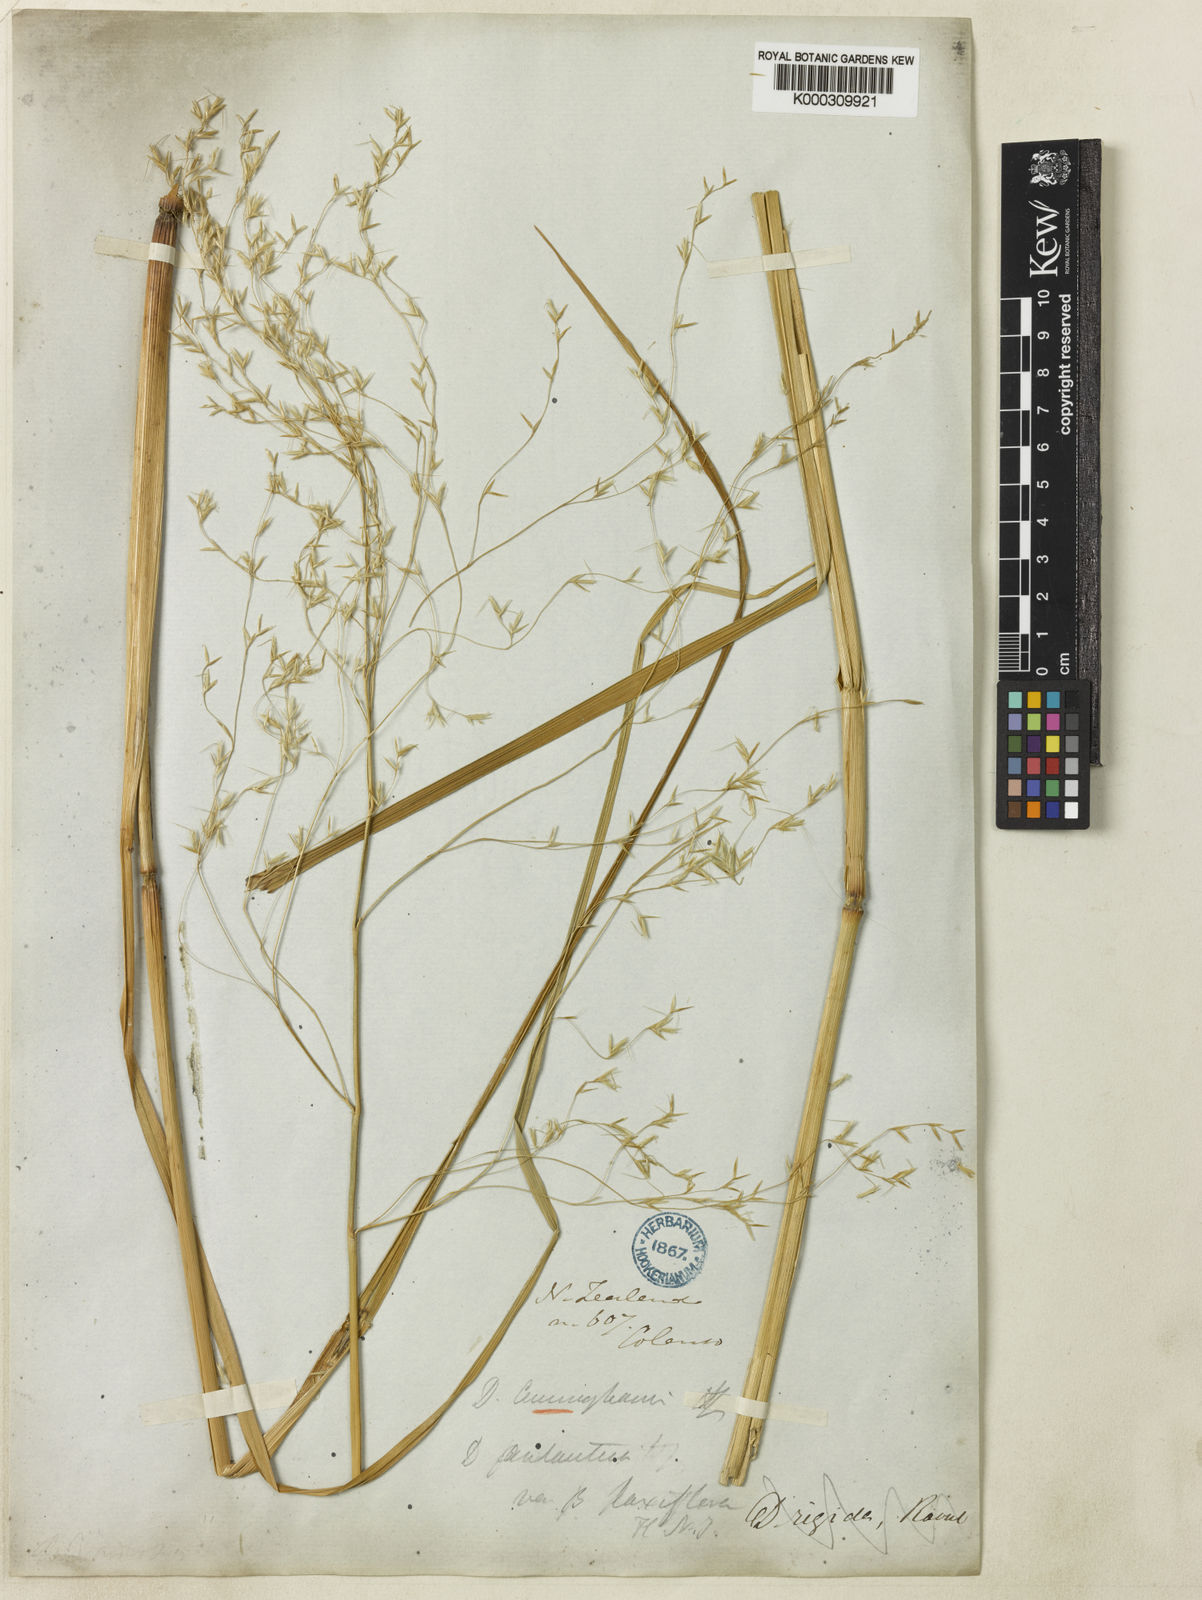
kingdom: Plantae
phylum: Tracheophyta
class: Liliopsida
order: Poales
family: Poaceae
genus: Chionochloa
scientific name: Chionochloa conspicua
